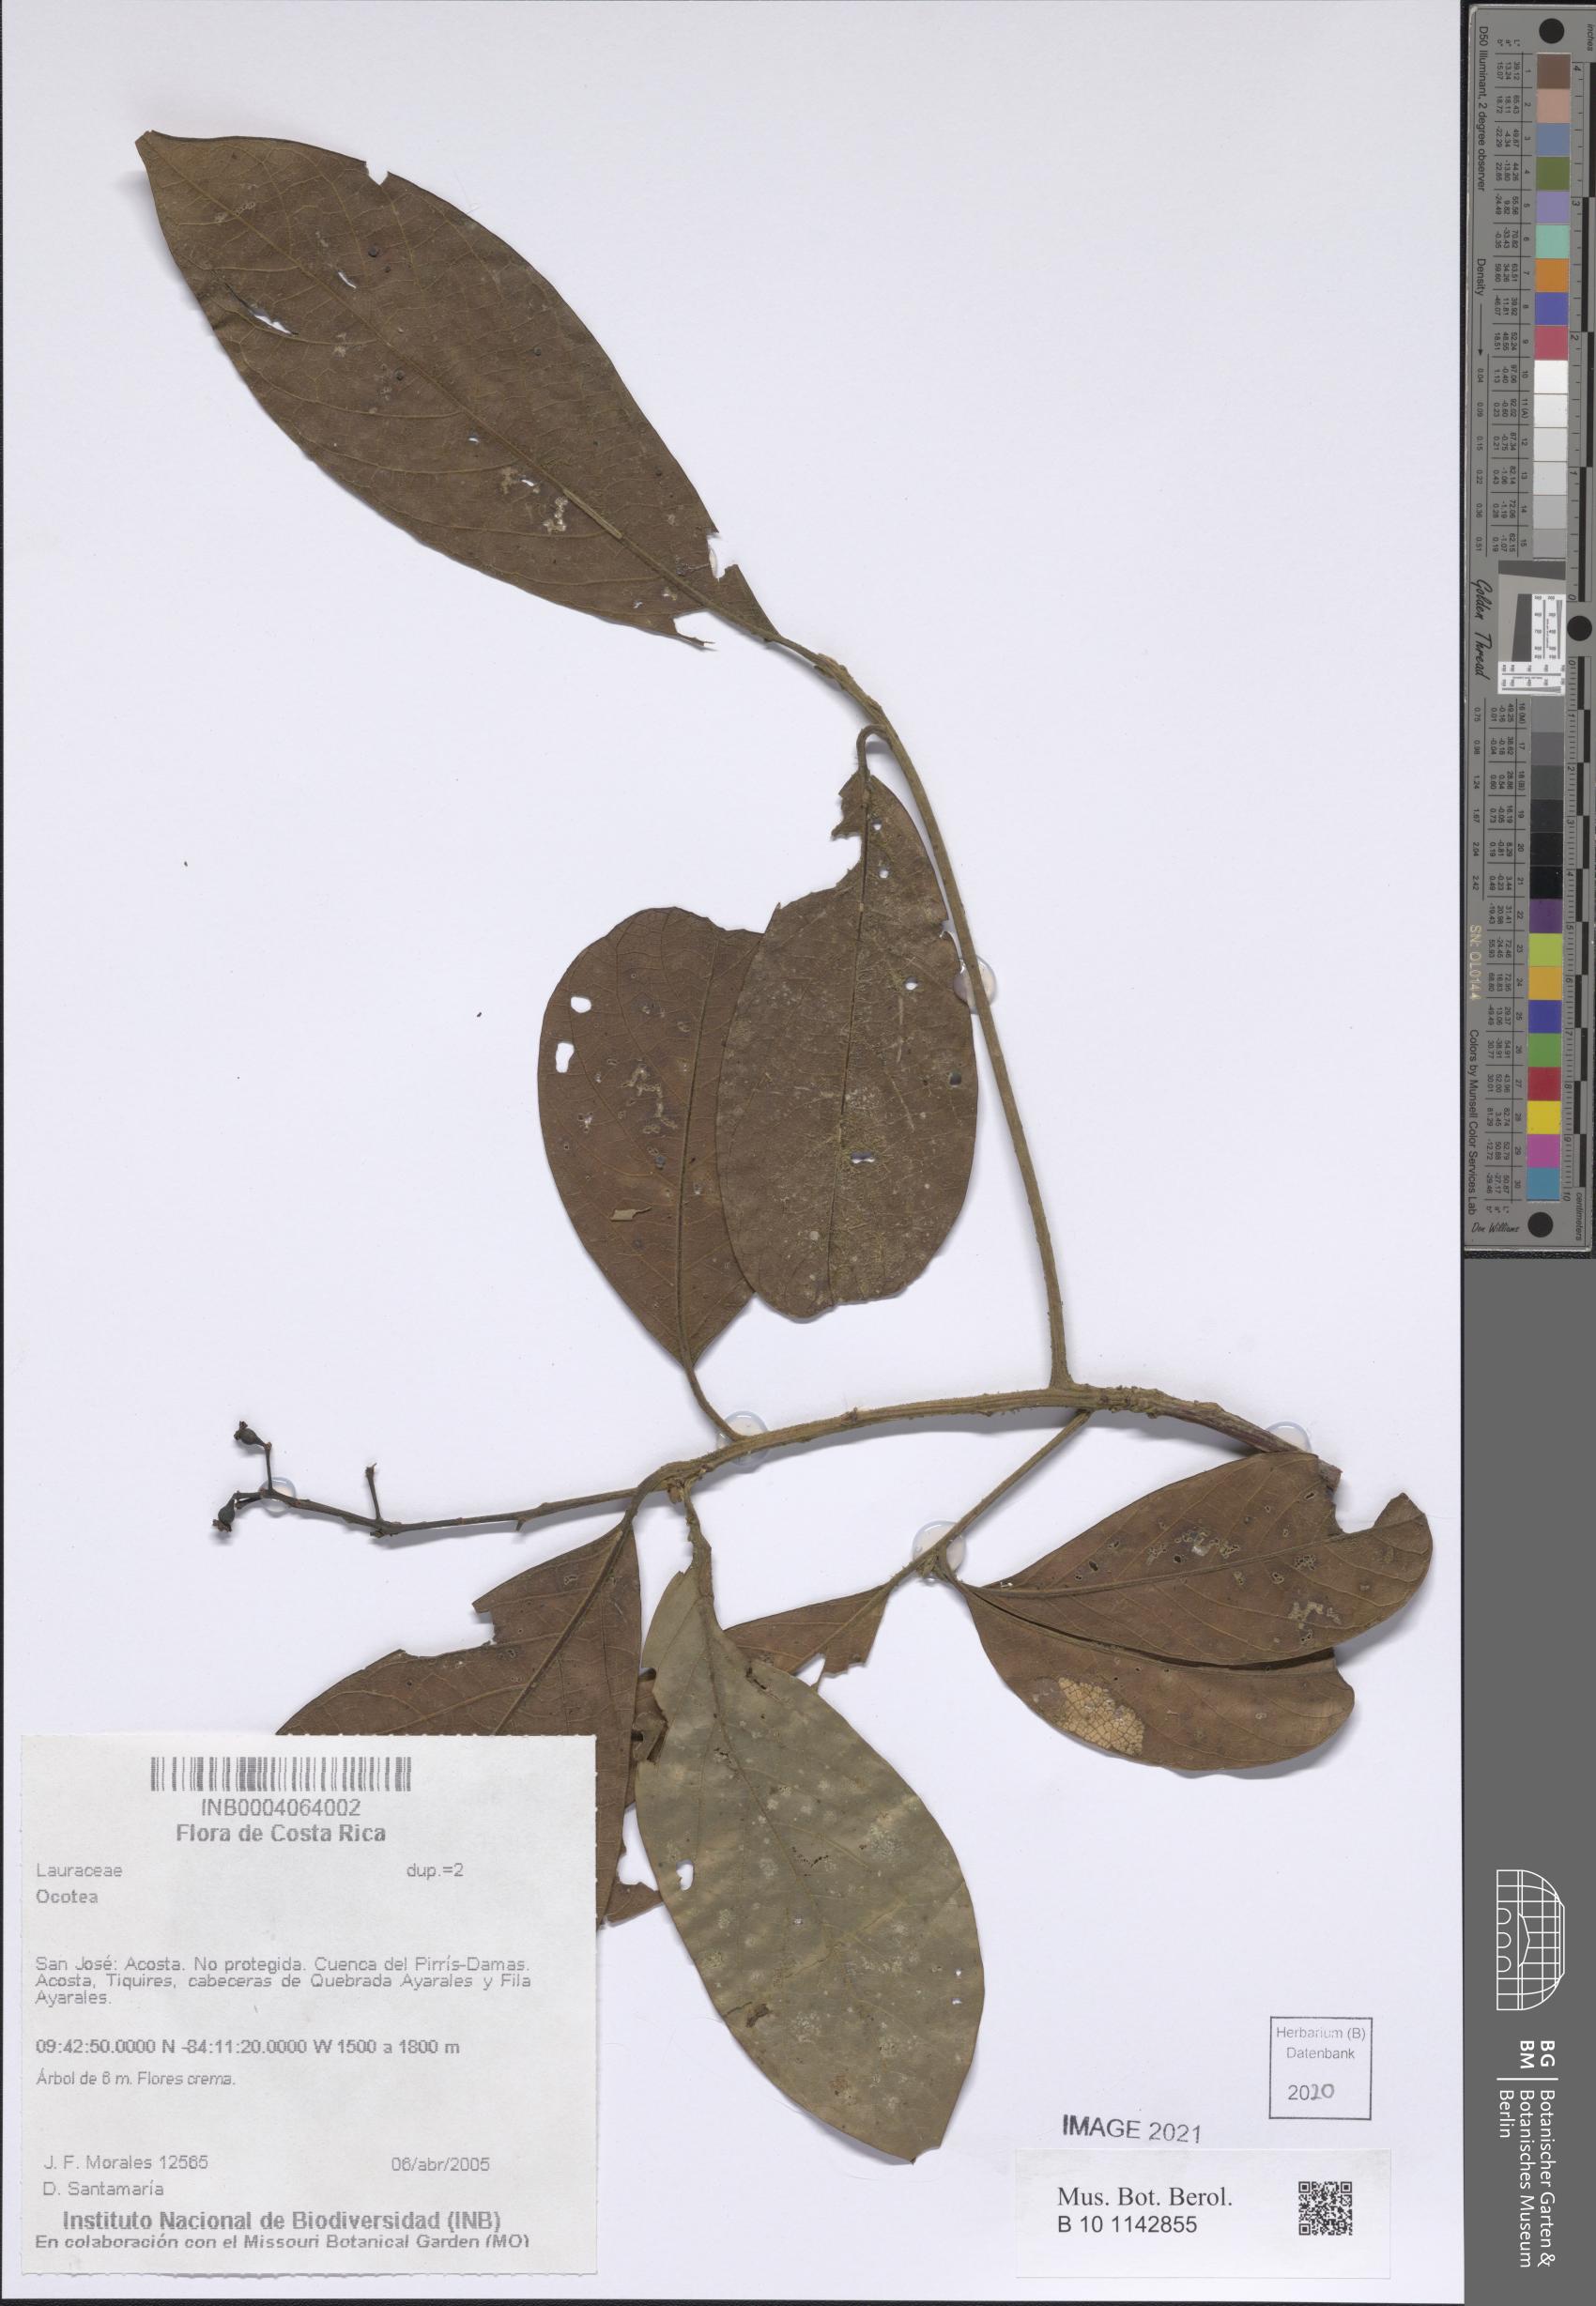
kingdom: Plantae
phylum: Tracheophyta
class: Magnoliopsida
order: Laurales
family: Lauraceae
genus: Ocotea
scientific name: Ocotea
